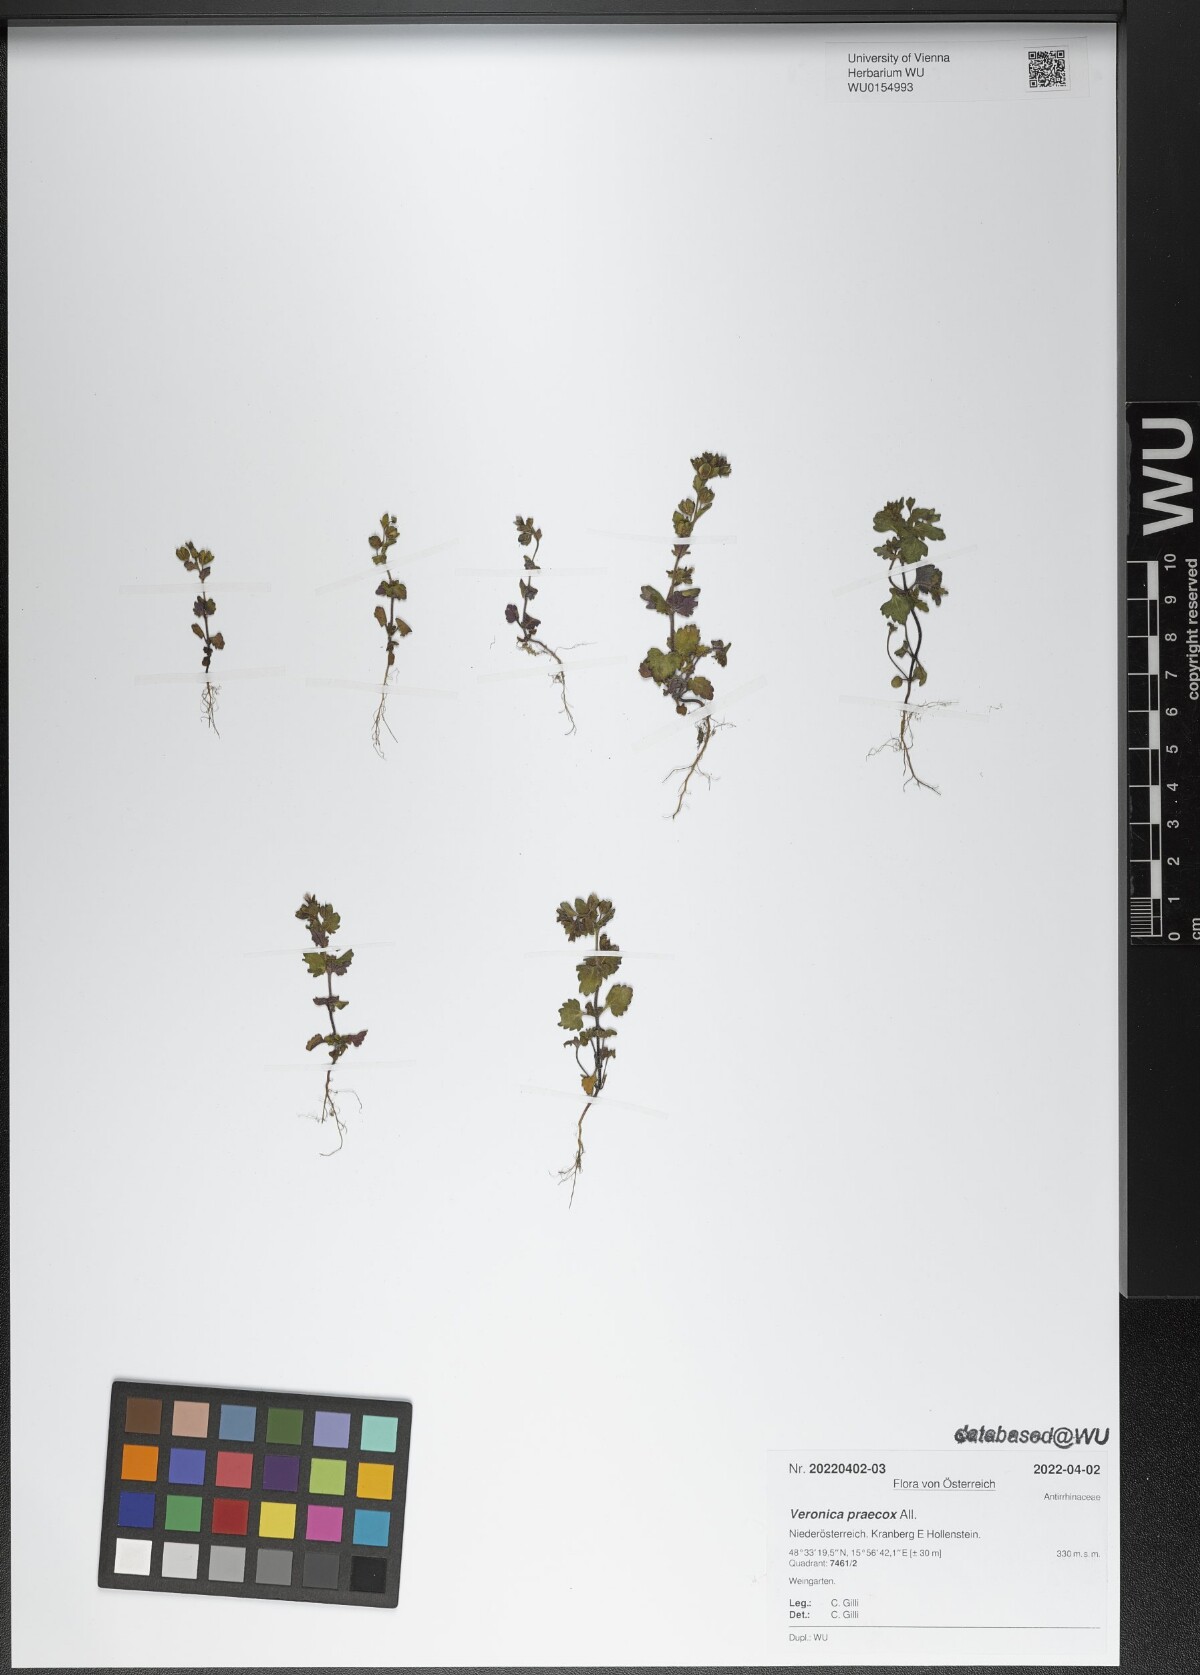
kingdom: Plantae
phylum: Tracheophyta
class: Magnoliopsida
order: Lamiales
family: Plantaginaceae
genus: Veronica
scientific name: Veronica praecox
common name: Breckland speedwell
